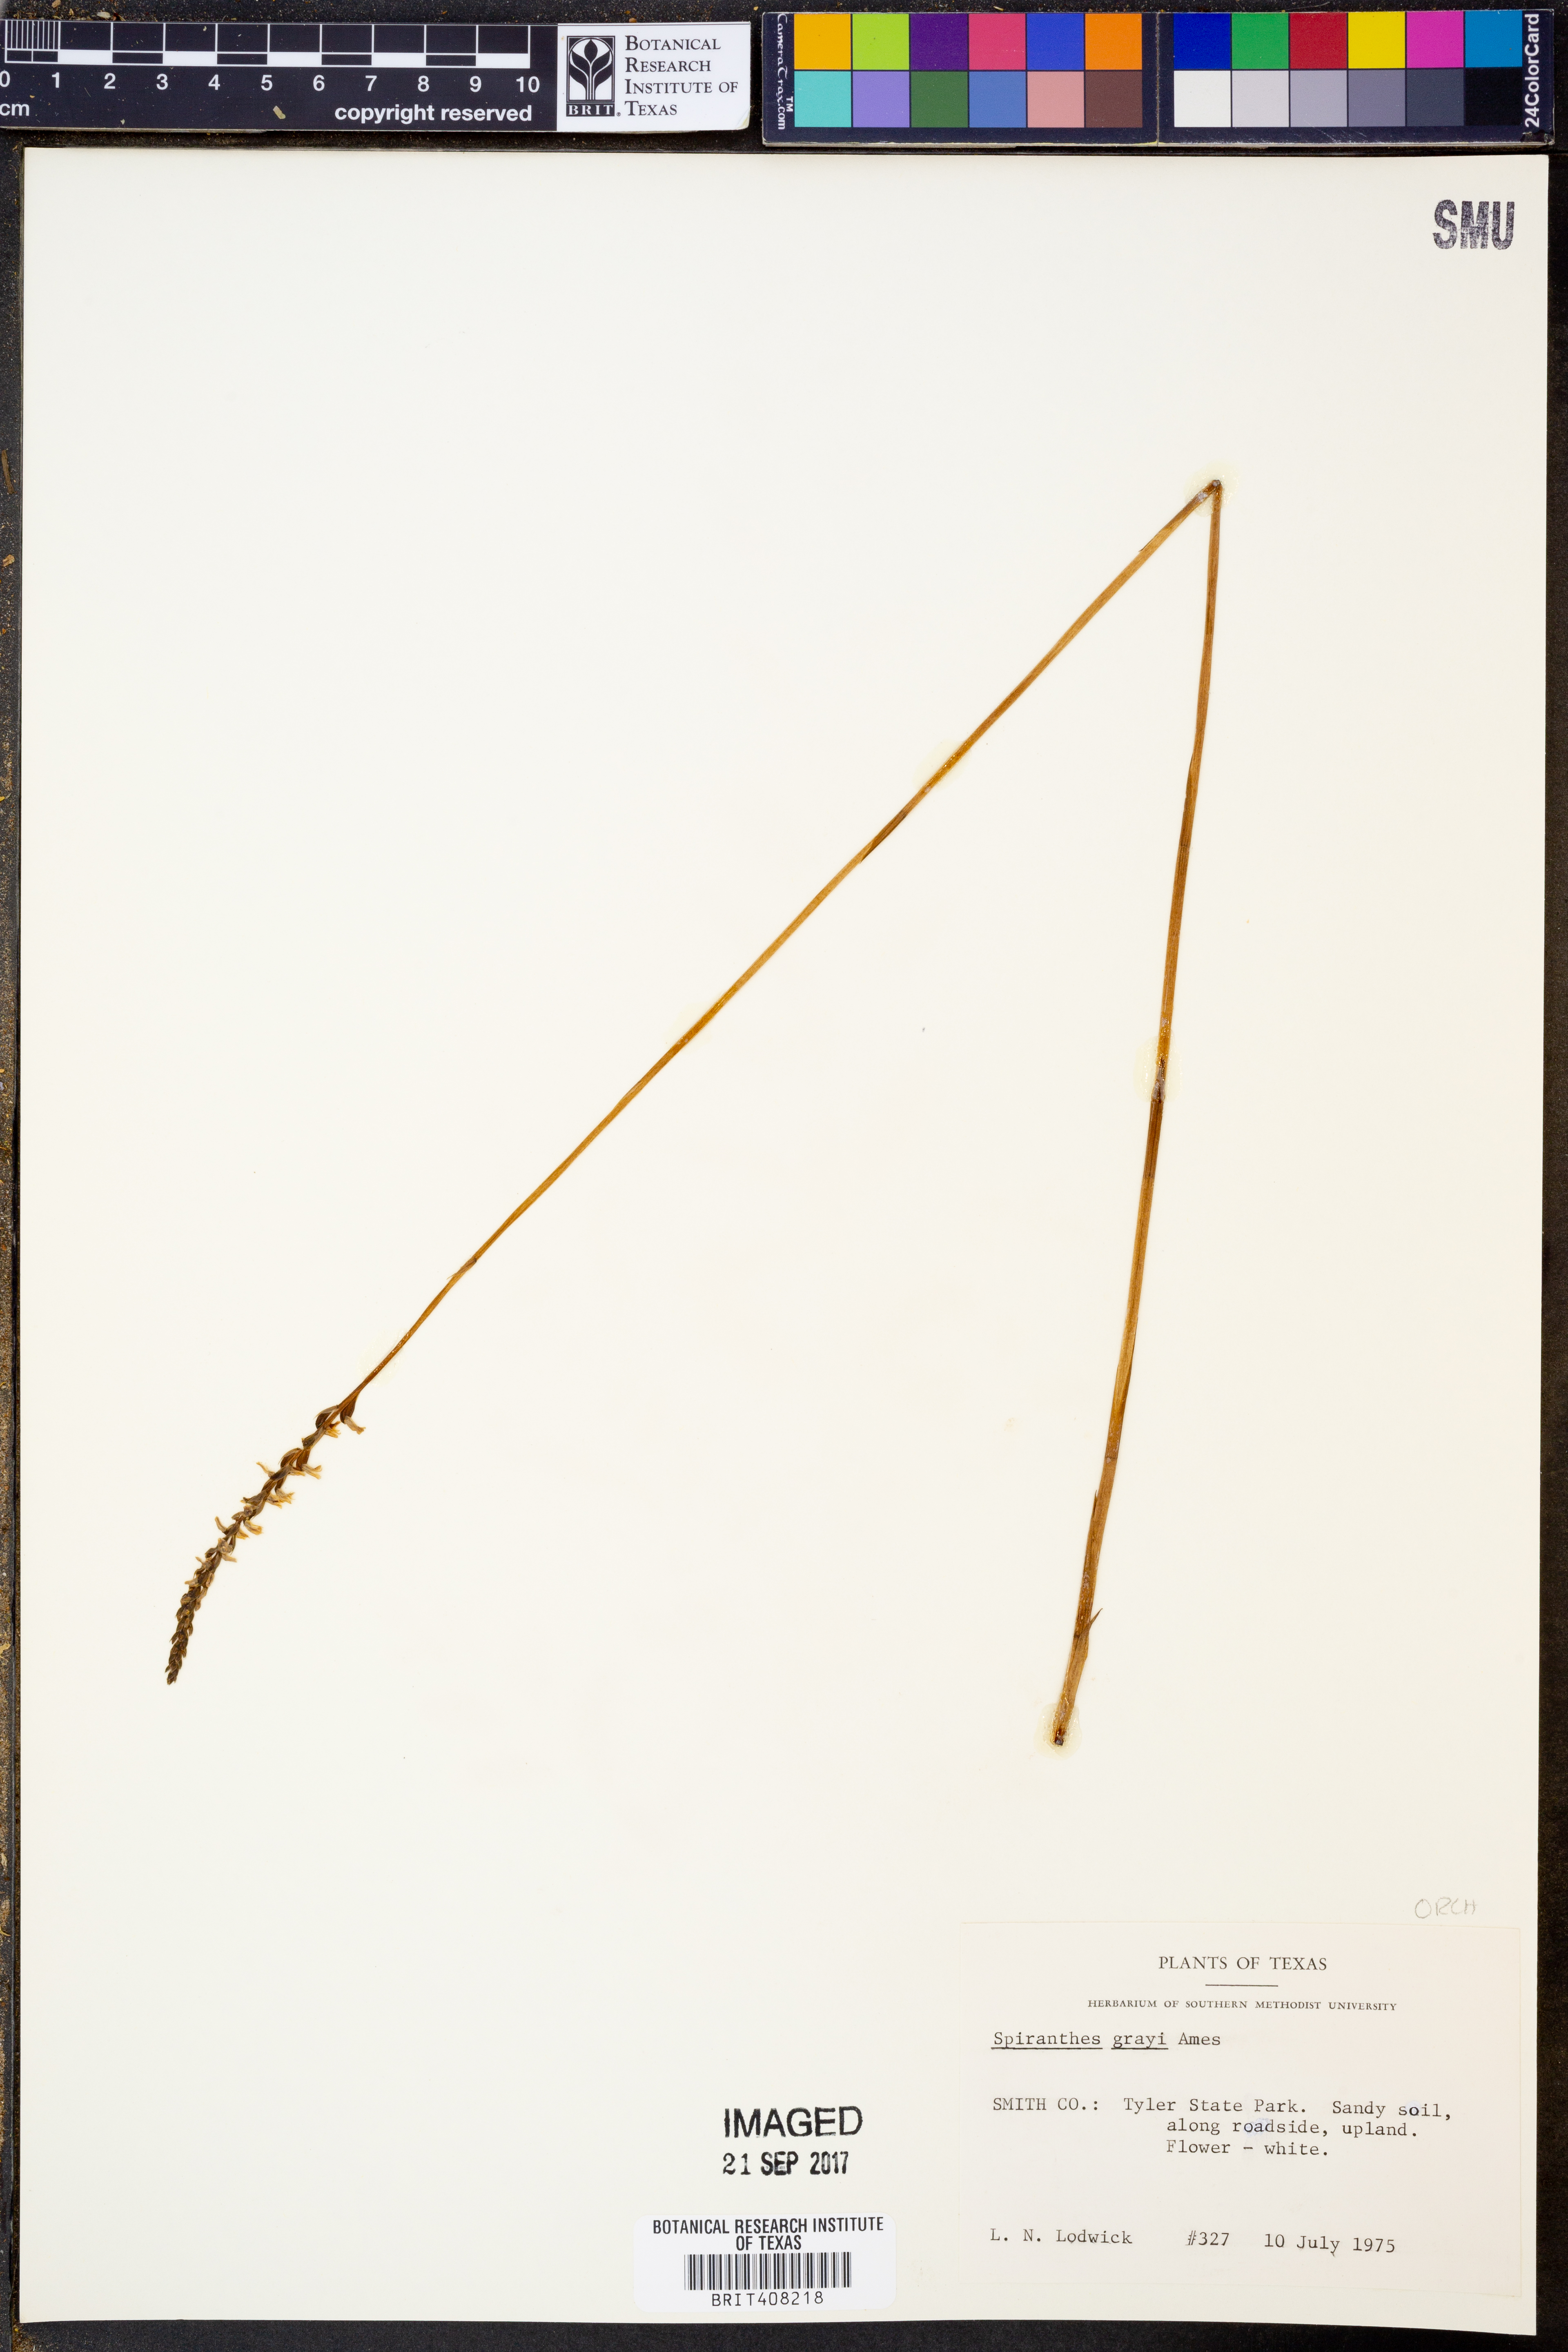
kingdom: Plantae
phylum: Tracheophyta
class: Liliopsida
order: Asparagales
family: Orchidaceae
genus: Spiranthes
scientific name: Spiranthes tuberosa
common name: Little ladies'-tresses
